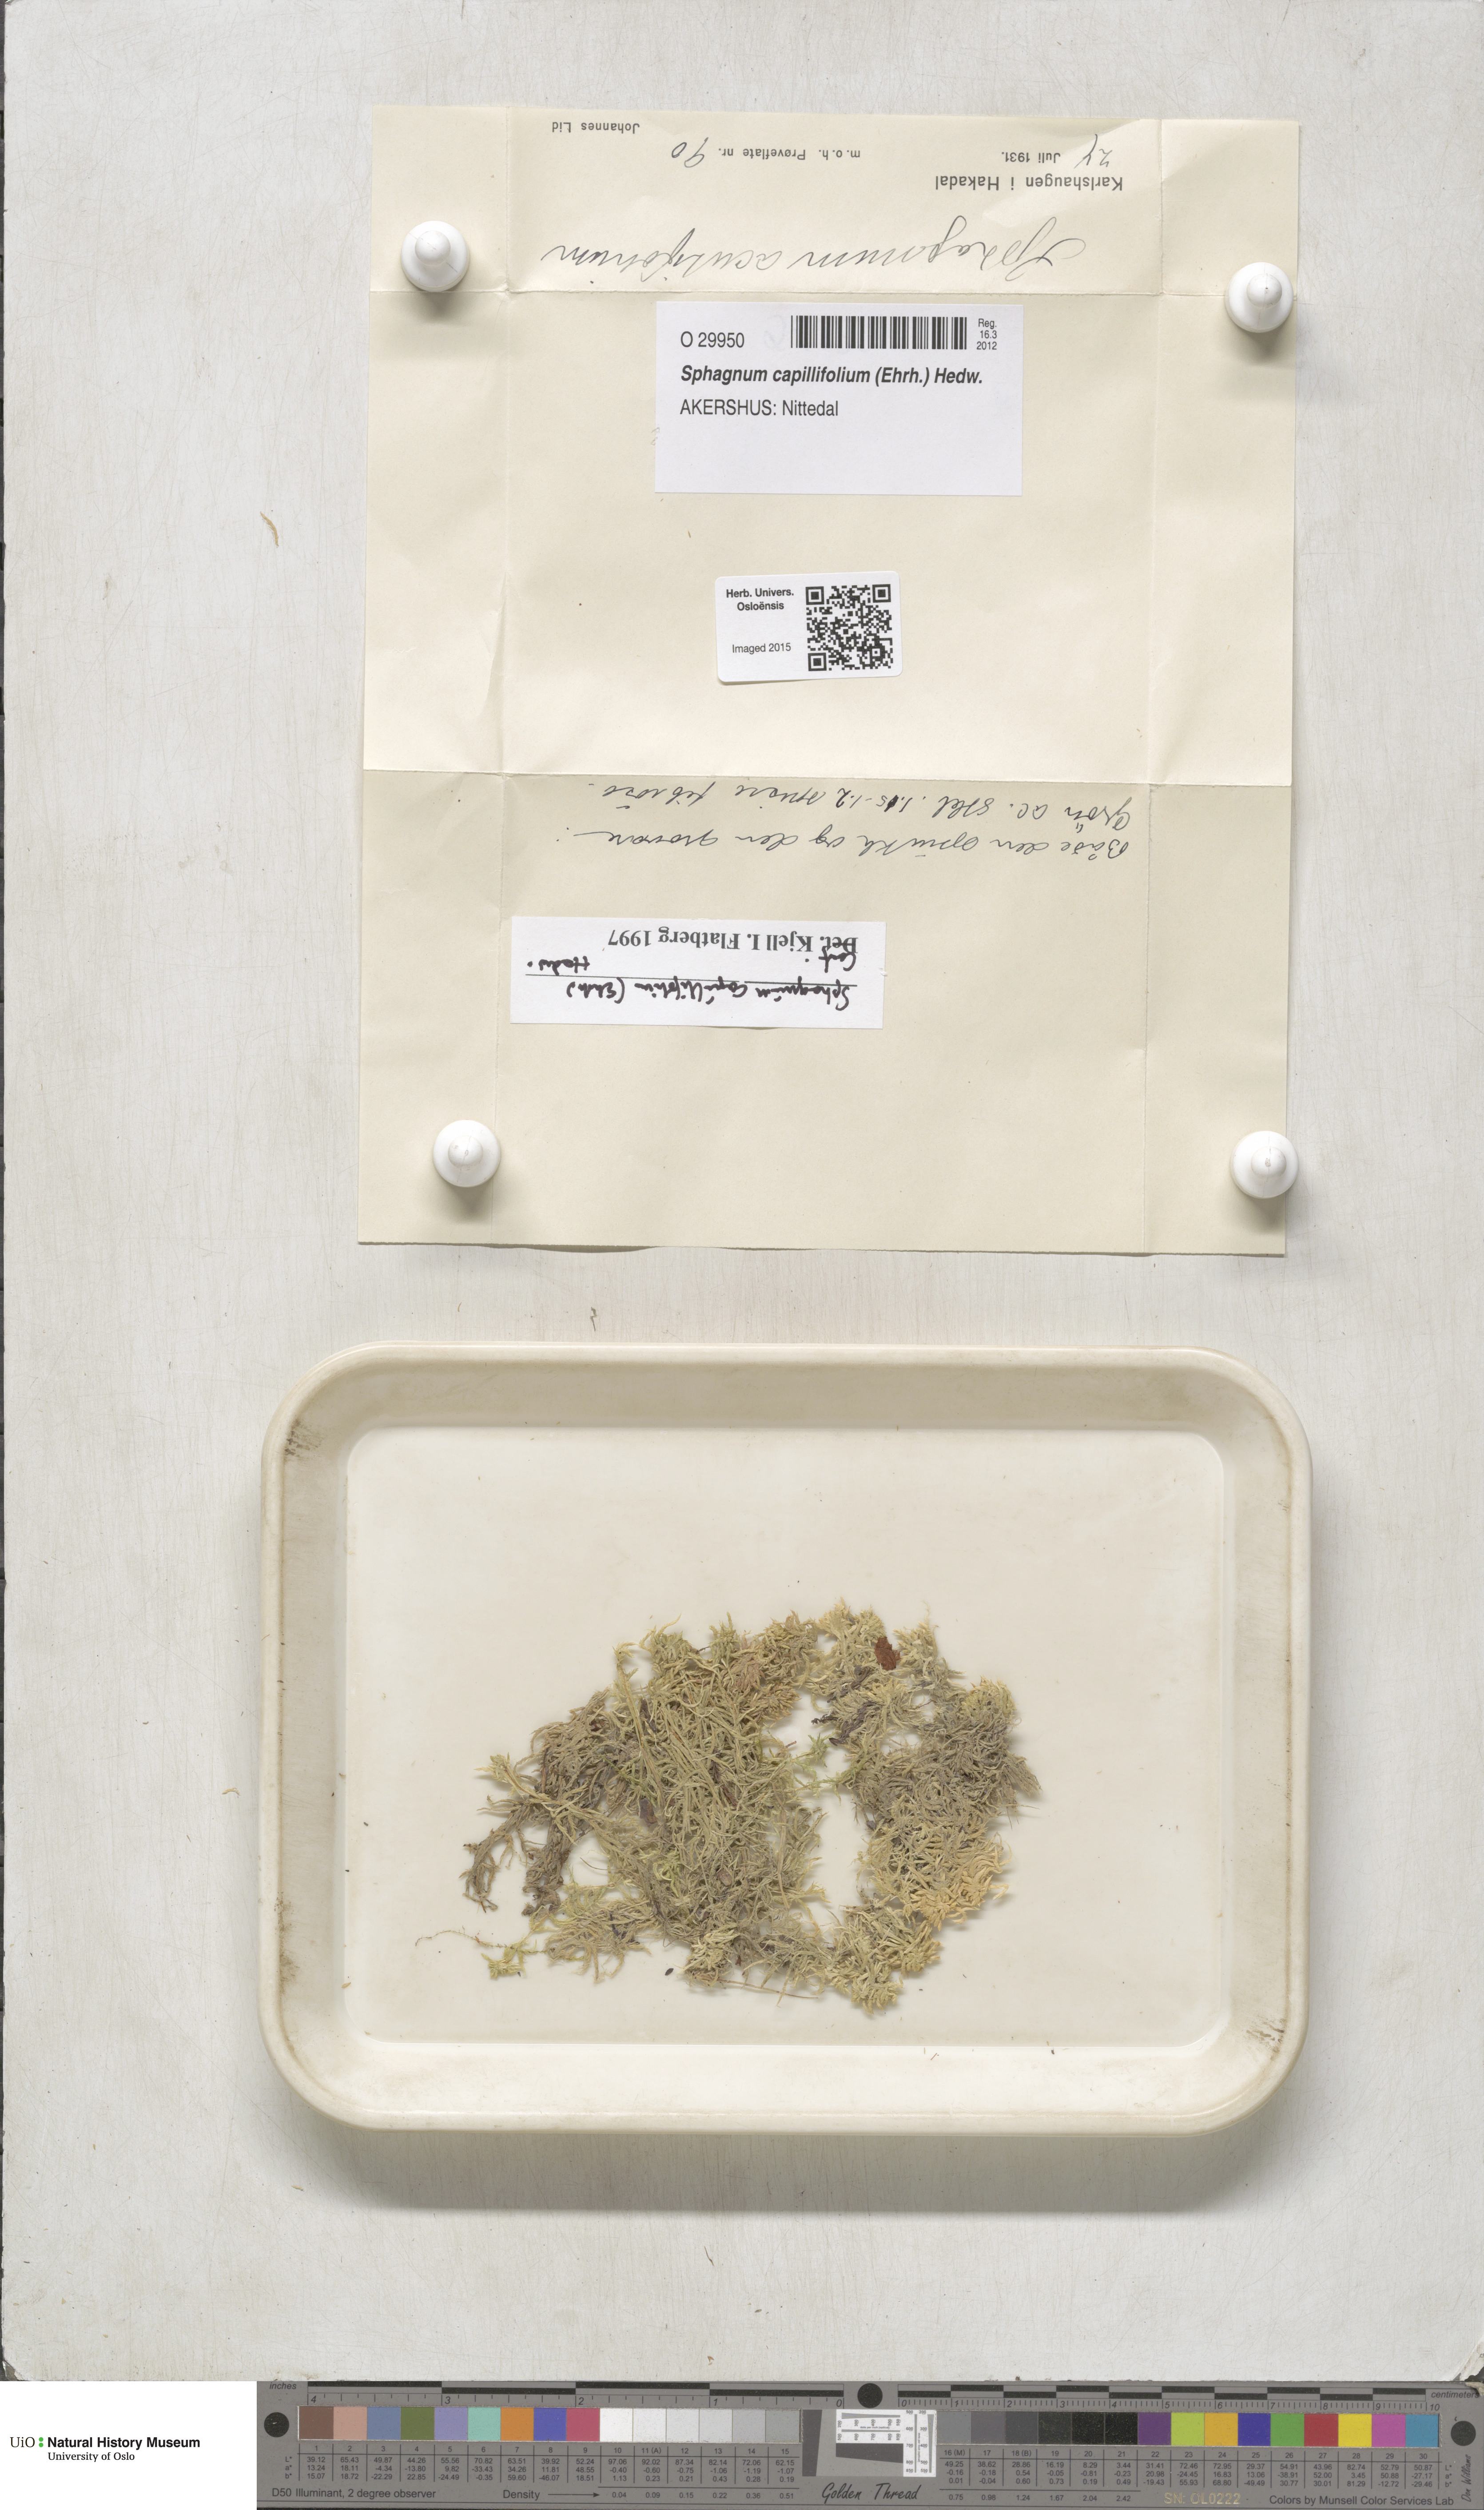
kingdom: Plantae
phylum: Bryophyta
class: Sphagnopsida
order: Sphagnales
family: Sphagnaceae
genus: Sphagnum
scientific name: Sphagnum capillifolium
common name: Small red peat moss
